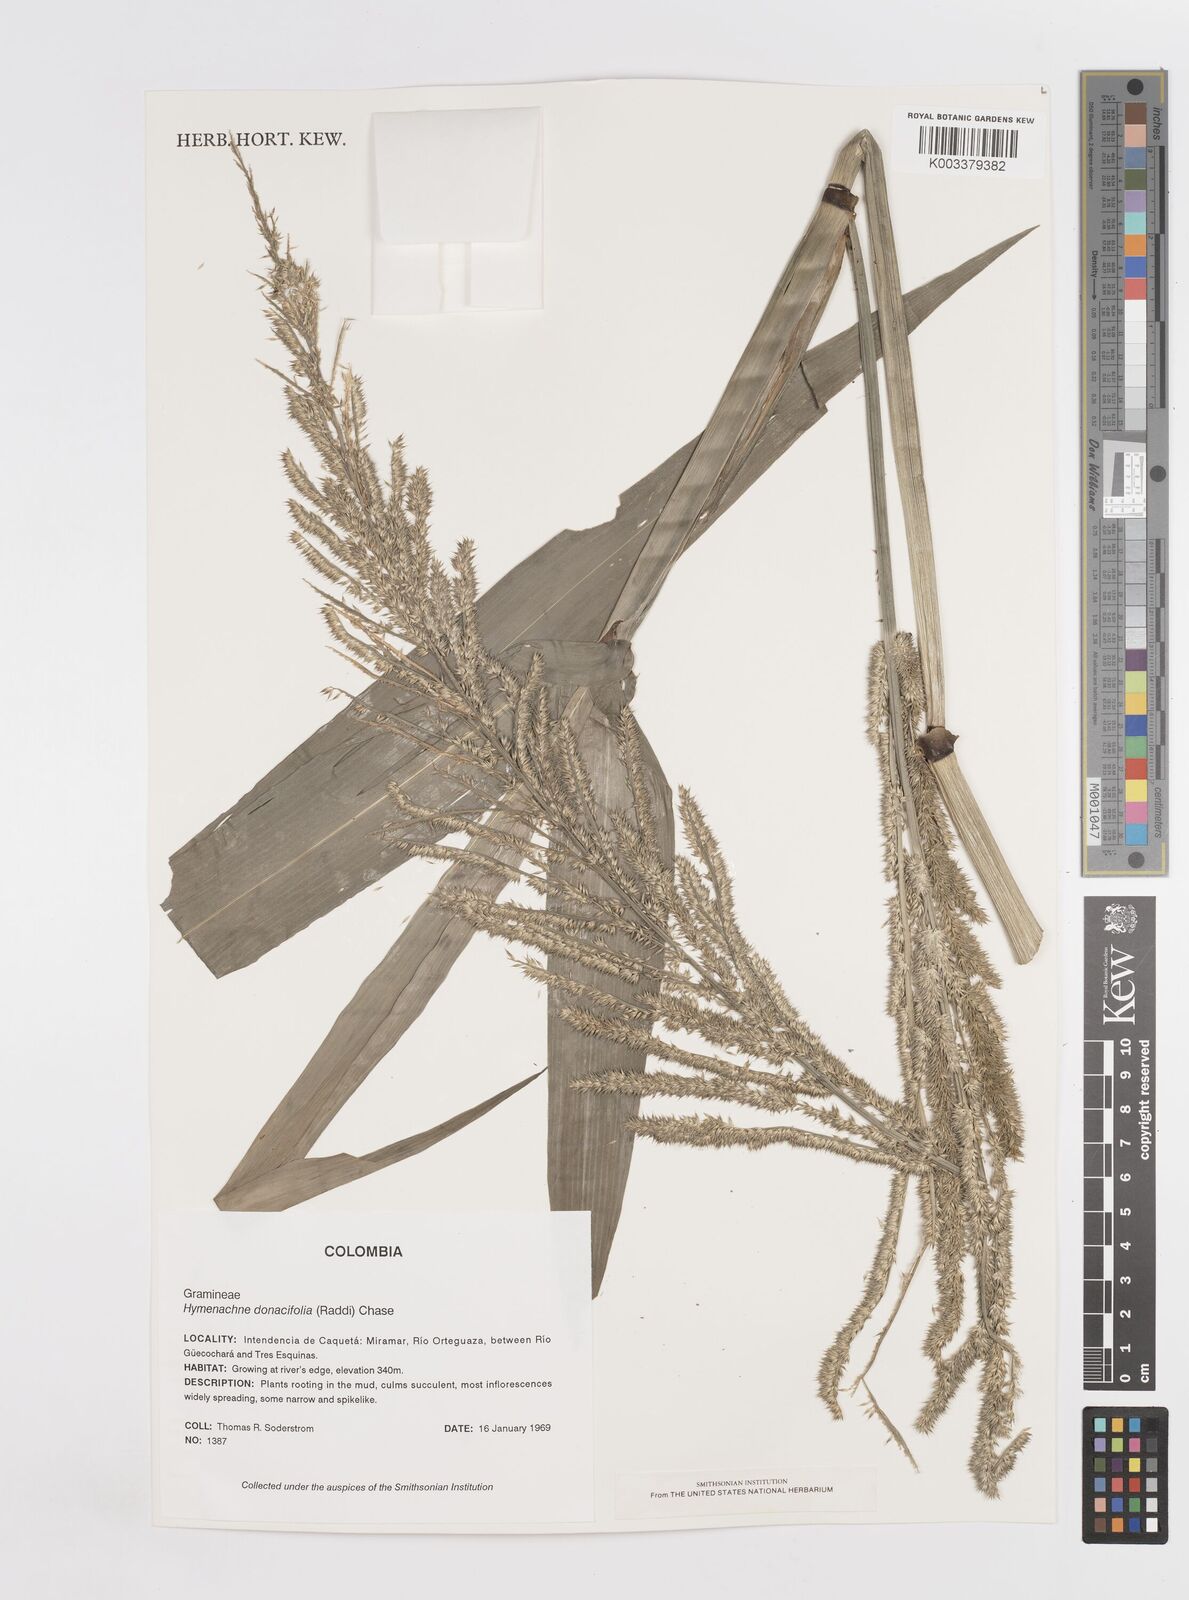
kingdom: Plantae
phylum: Tracheophyta
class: Liliopsida
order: Poales
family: Poaceae
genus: Hymenachne
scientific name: Hymenachne donacifolia
